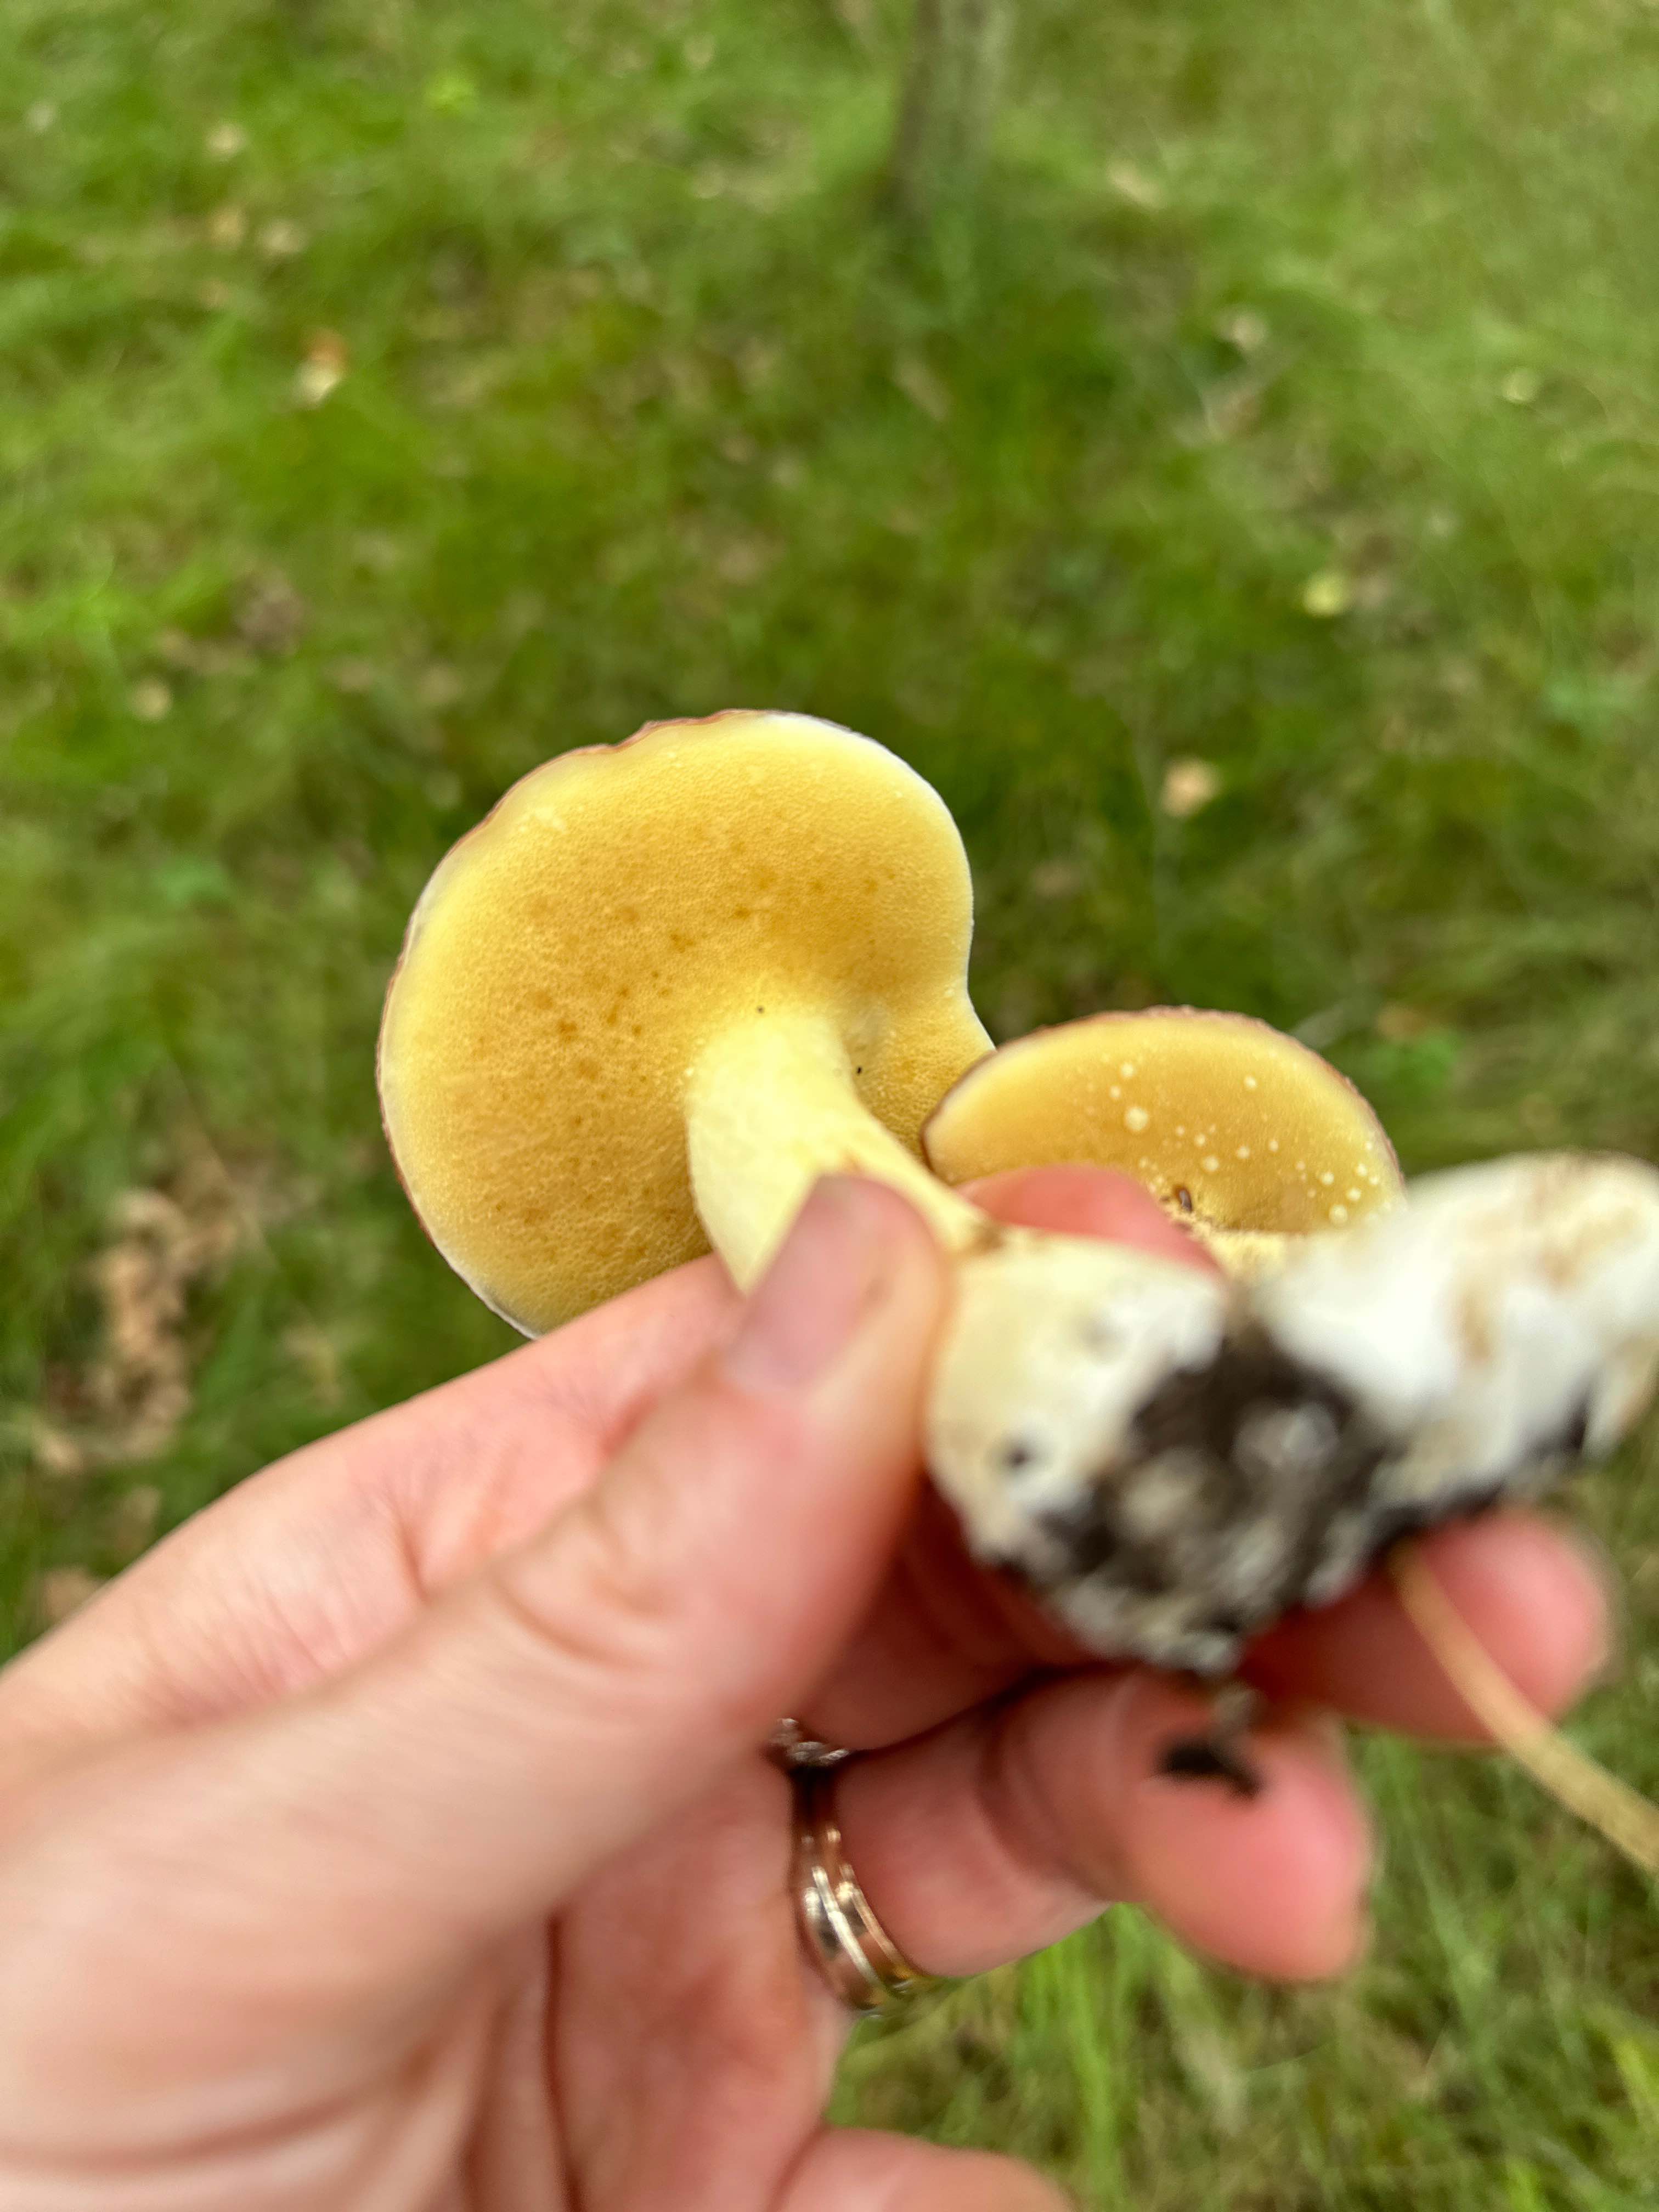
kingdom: Fungi
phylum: Basidiomycota
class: Agaricomycetes
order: Boletales
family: Suillaceae
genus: Suillus
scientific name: Suillus granulatus
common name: kornet slimrørhat
